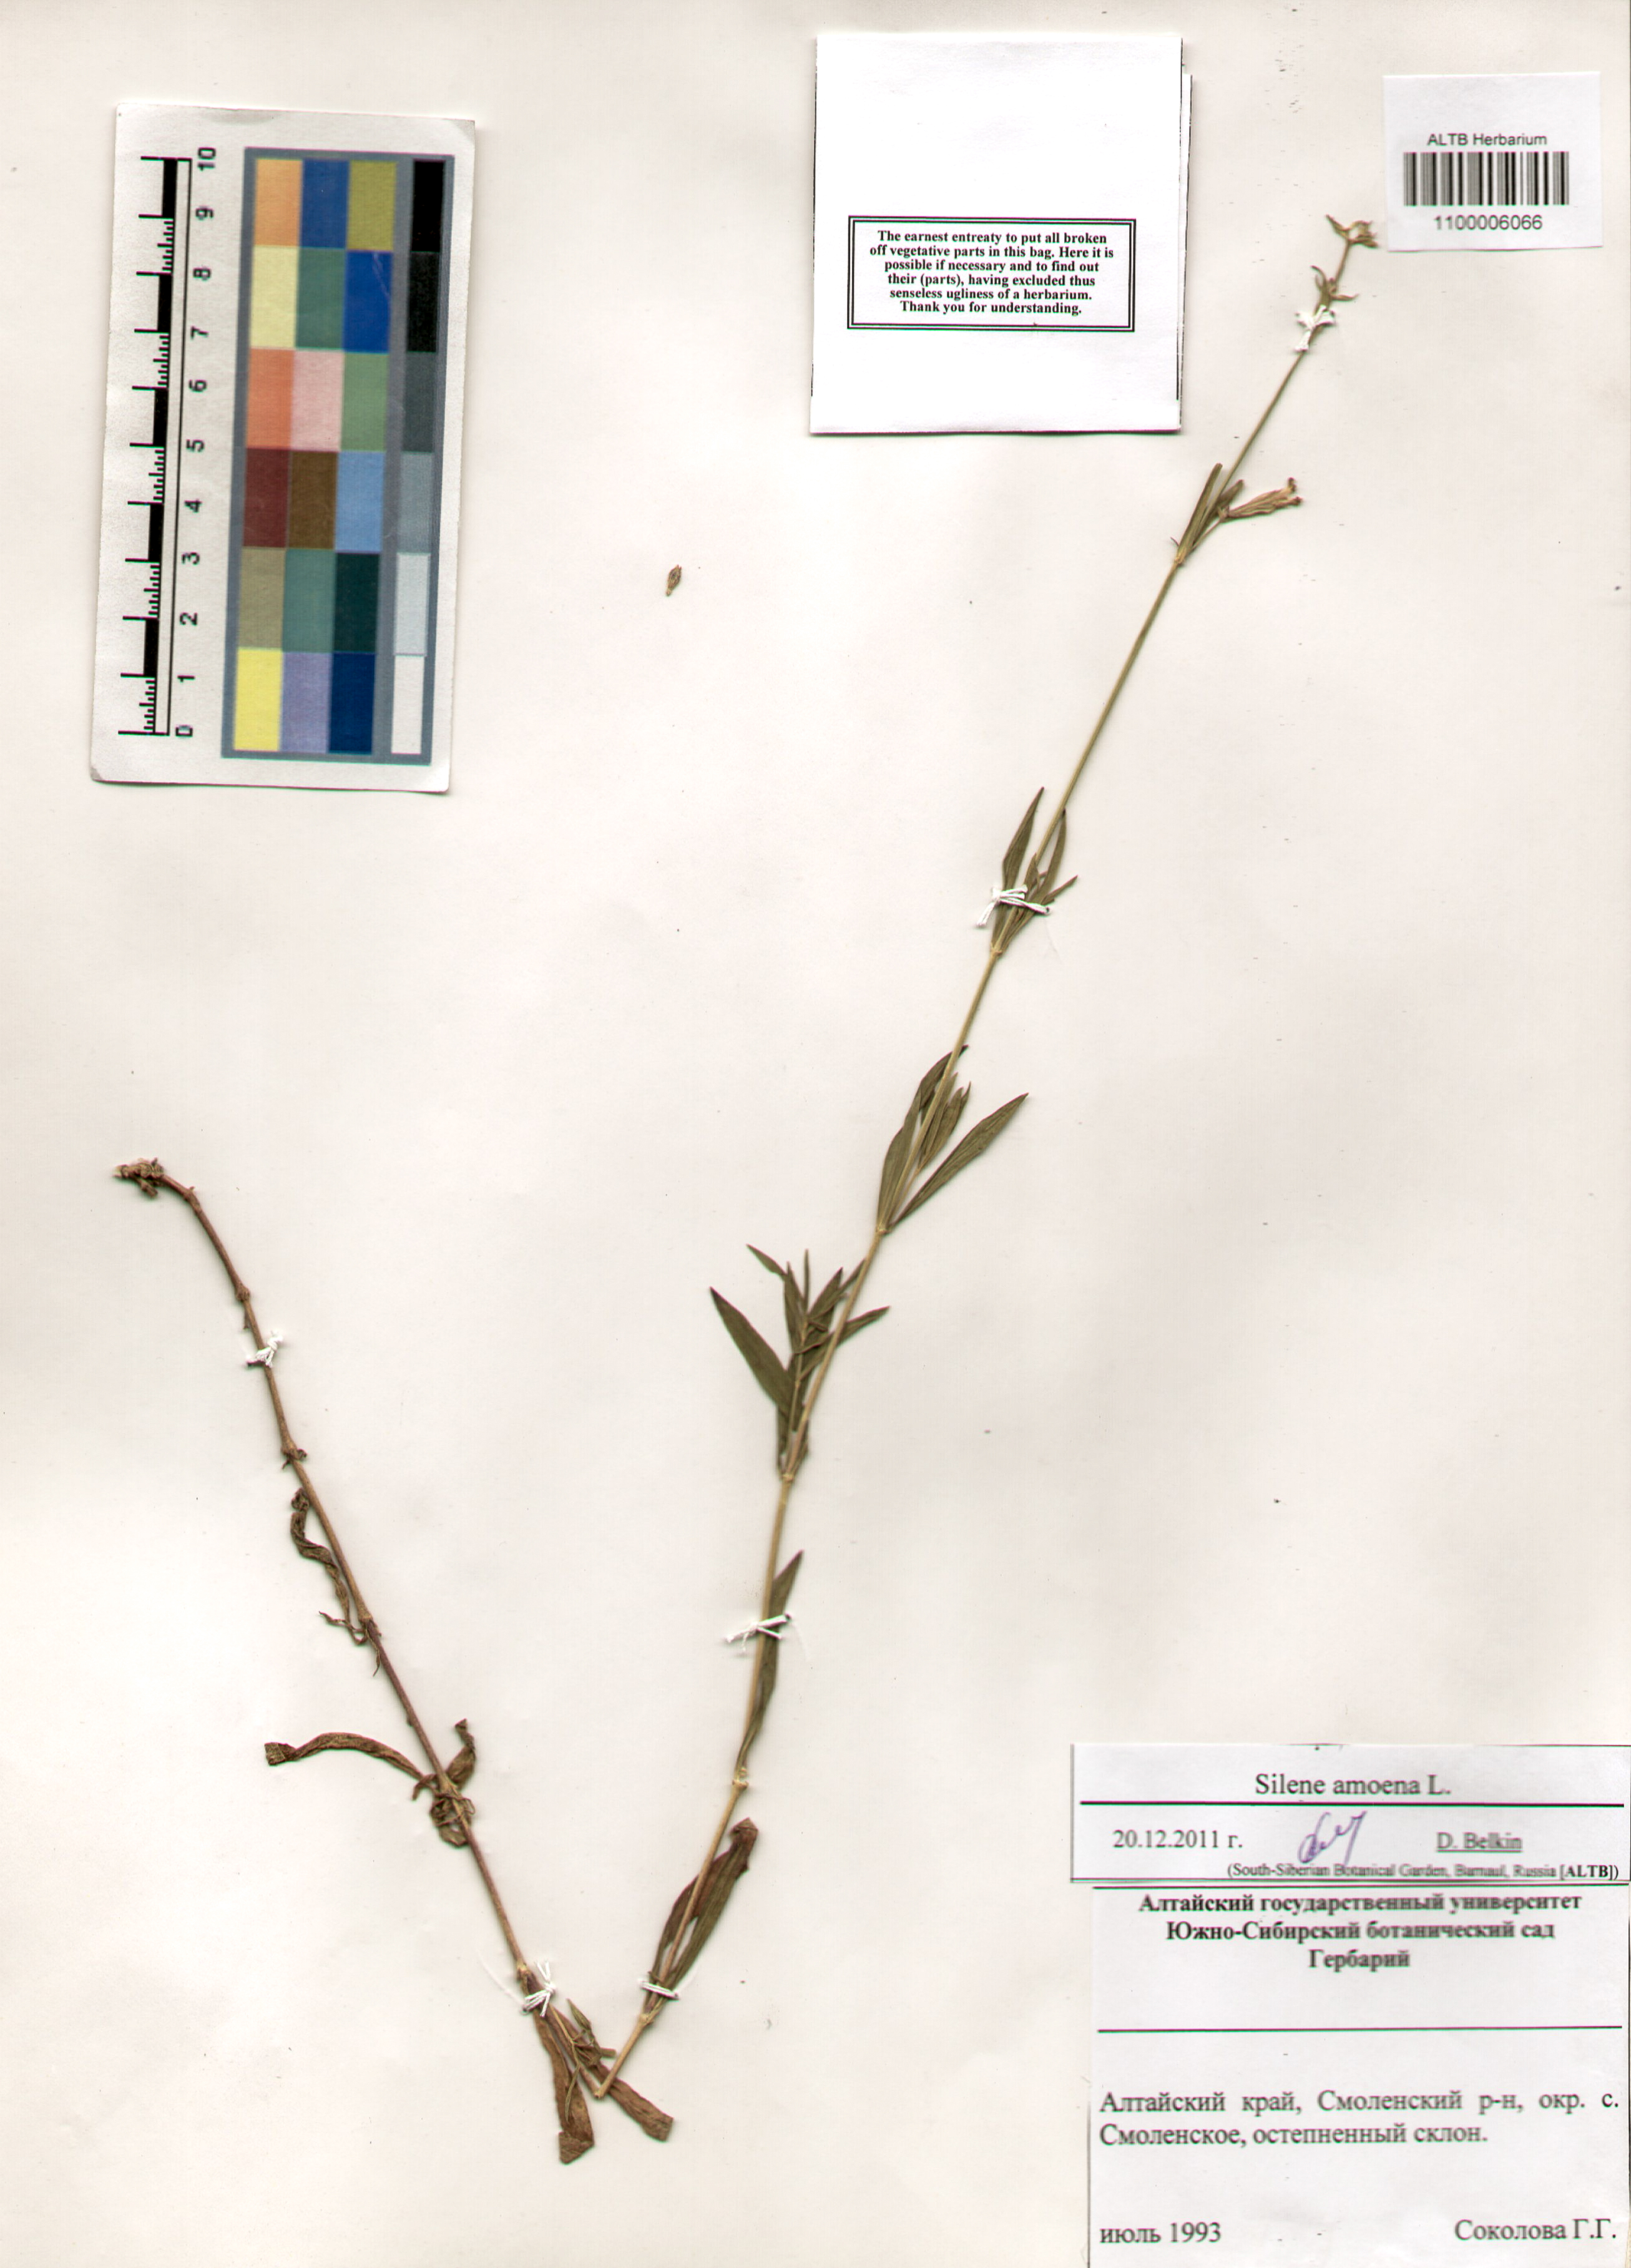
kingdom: Plantae
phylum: Tracheophyta
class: Magnoliopsida
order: Caryophyllales
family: Caryophyllaceae
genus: Silene
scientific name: Silene amoena
